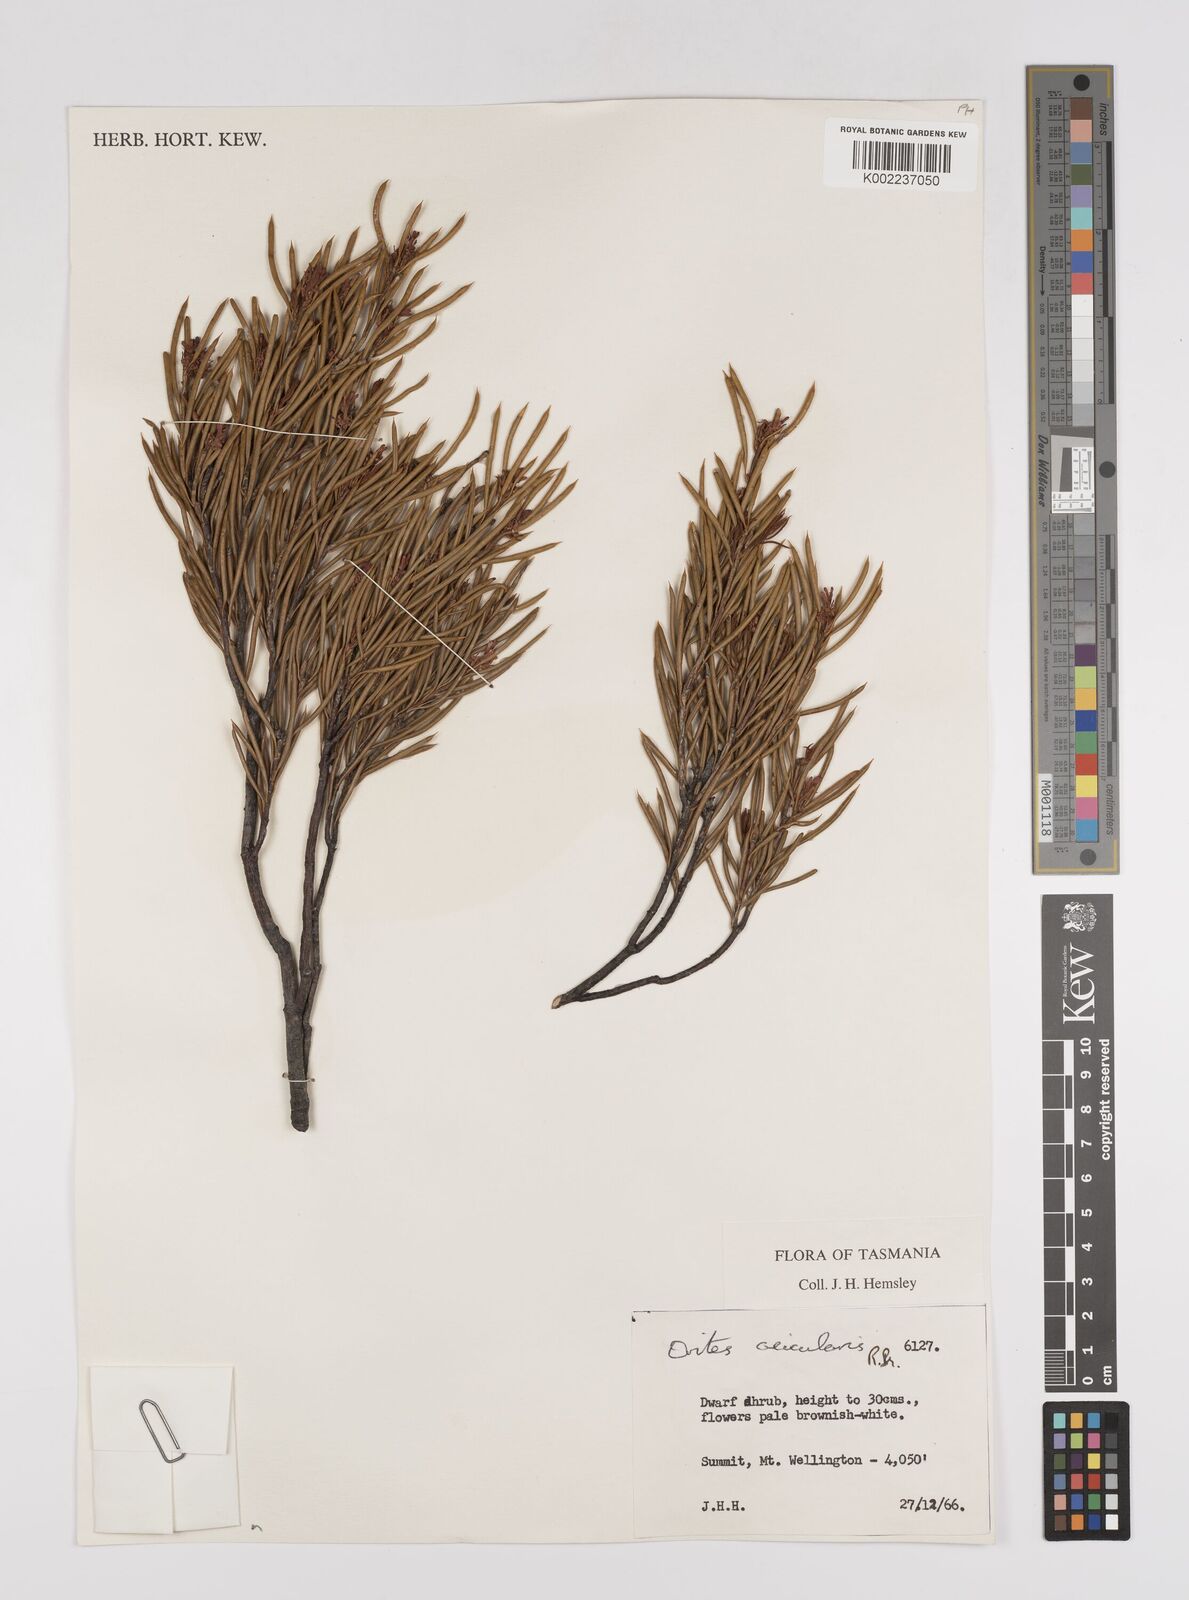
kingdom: Plantae
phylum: Tracheophyta
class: Magnoliopsida
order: Proteales
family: Proteaceae
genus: Orites
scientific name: Orites acicularis
